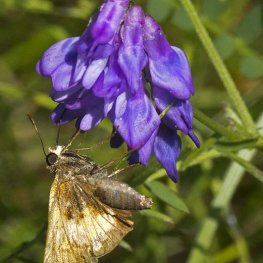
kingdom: Animalia
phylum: Arthropoda
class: Insecta
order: Lepidoptera
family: Hesperiidae
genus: Lon
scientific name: Lon hobomok
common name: Hobomok Skipper
